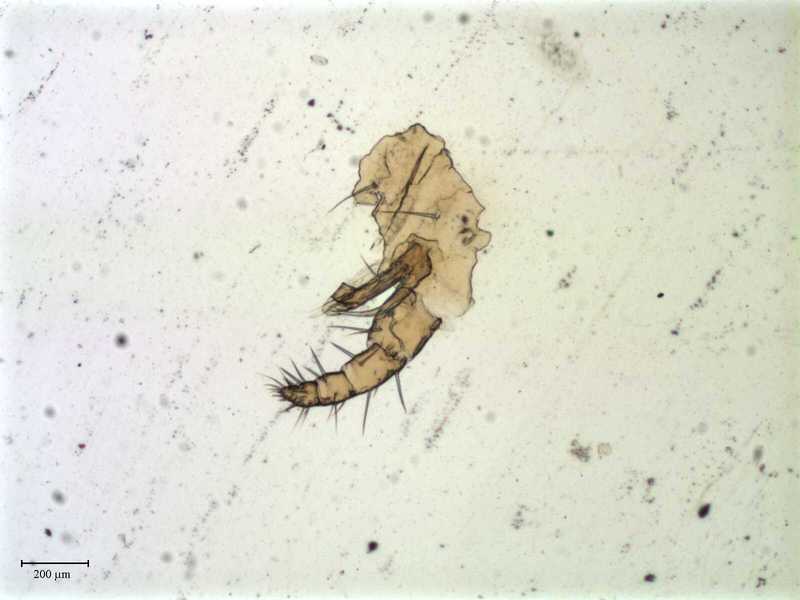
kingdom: Animalia
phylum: Arthropoda
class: Arachnida
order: Mesostigmata
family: Laelapidae
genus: Dinogamasus
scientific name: Dinogamasus
